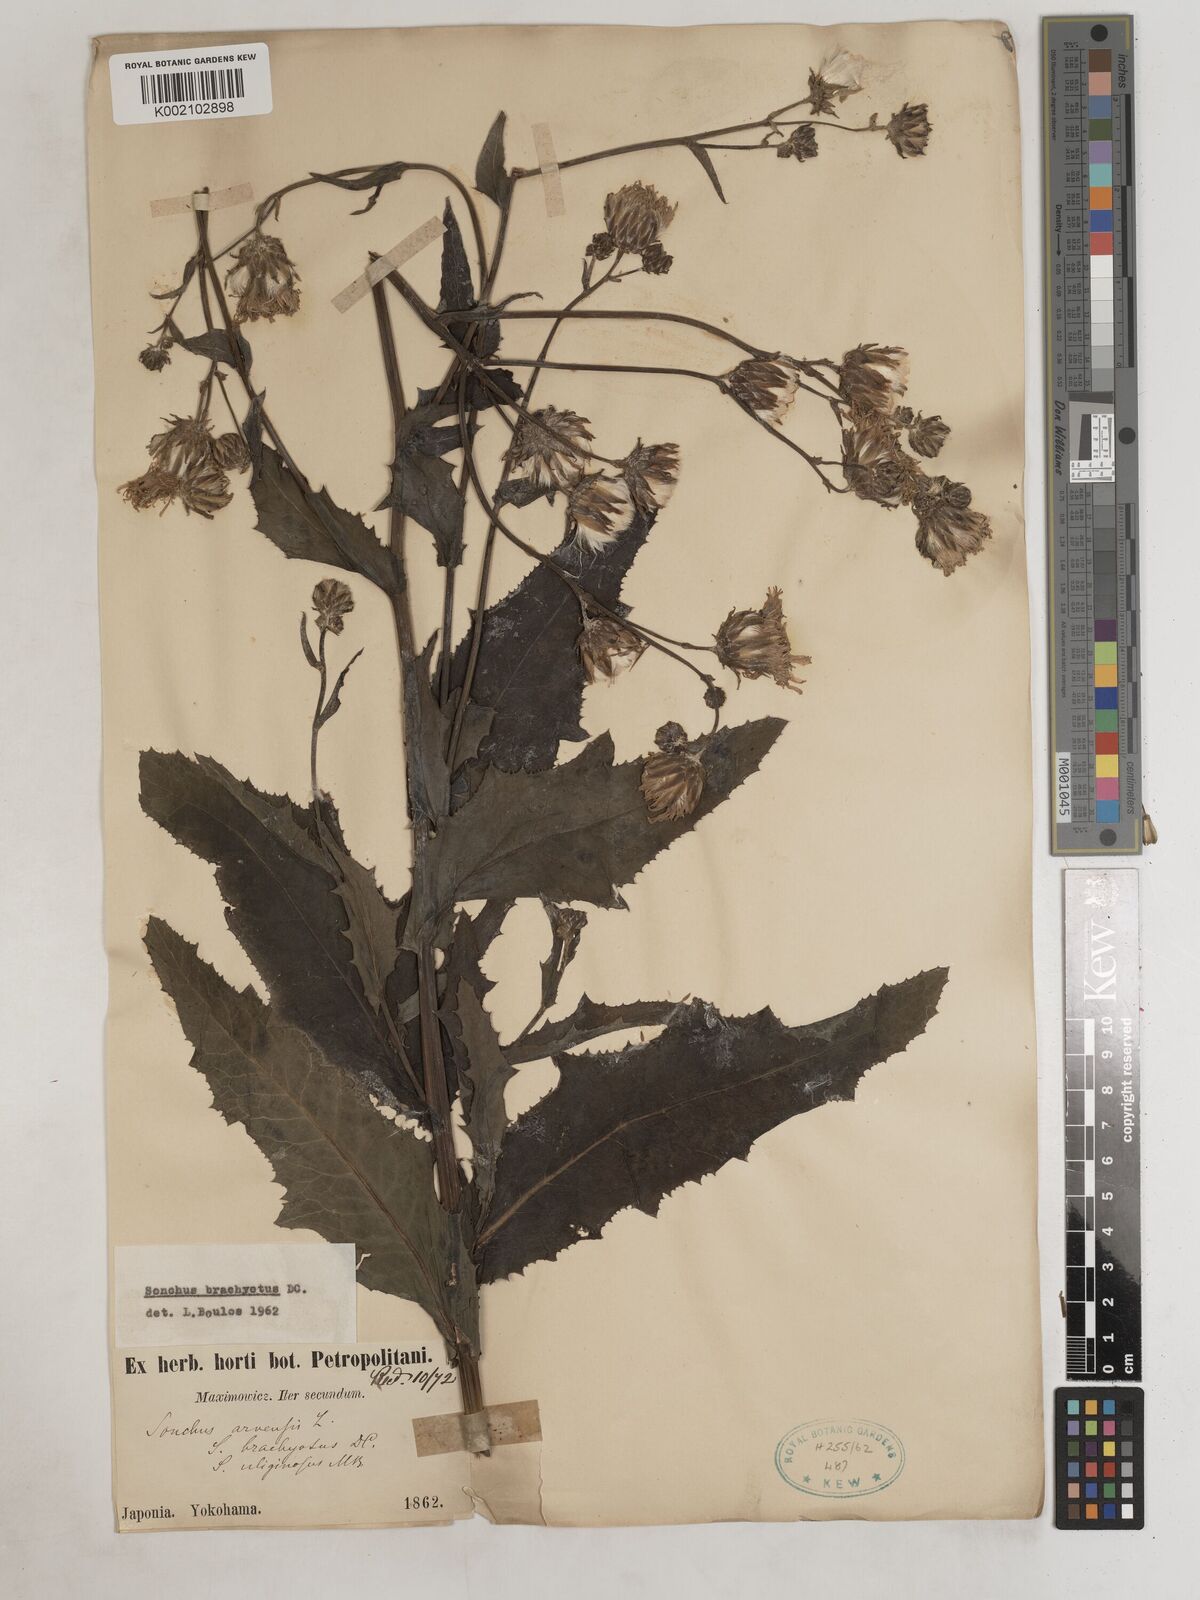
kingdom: Plantae
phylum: Tracheophyta
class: Magnoliopsida
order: Asterales
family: Asteraceae
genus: Sonchus
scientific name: Sonchus
